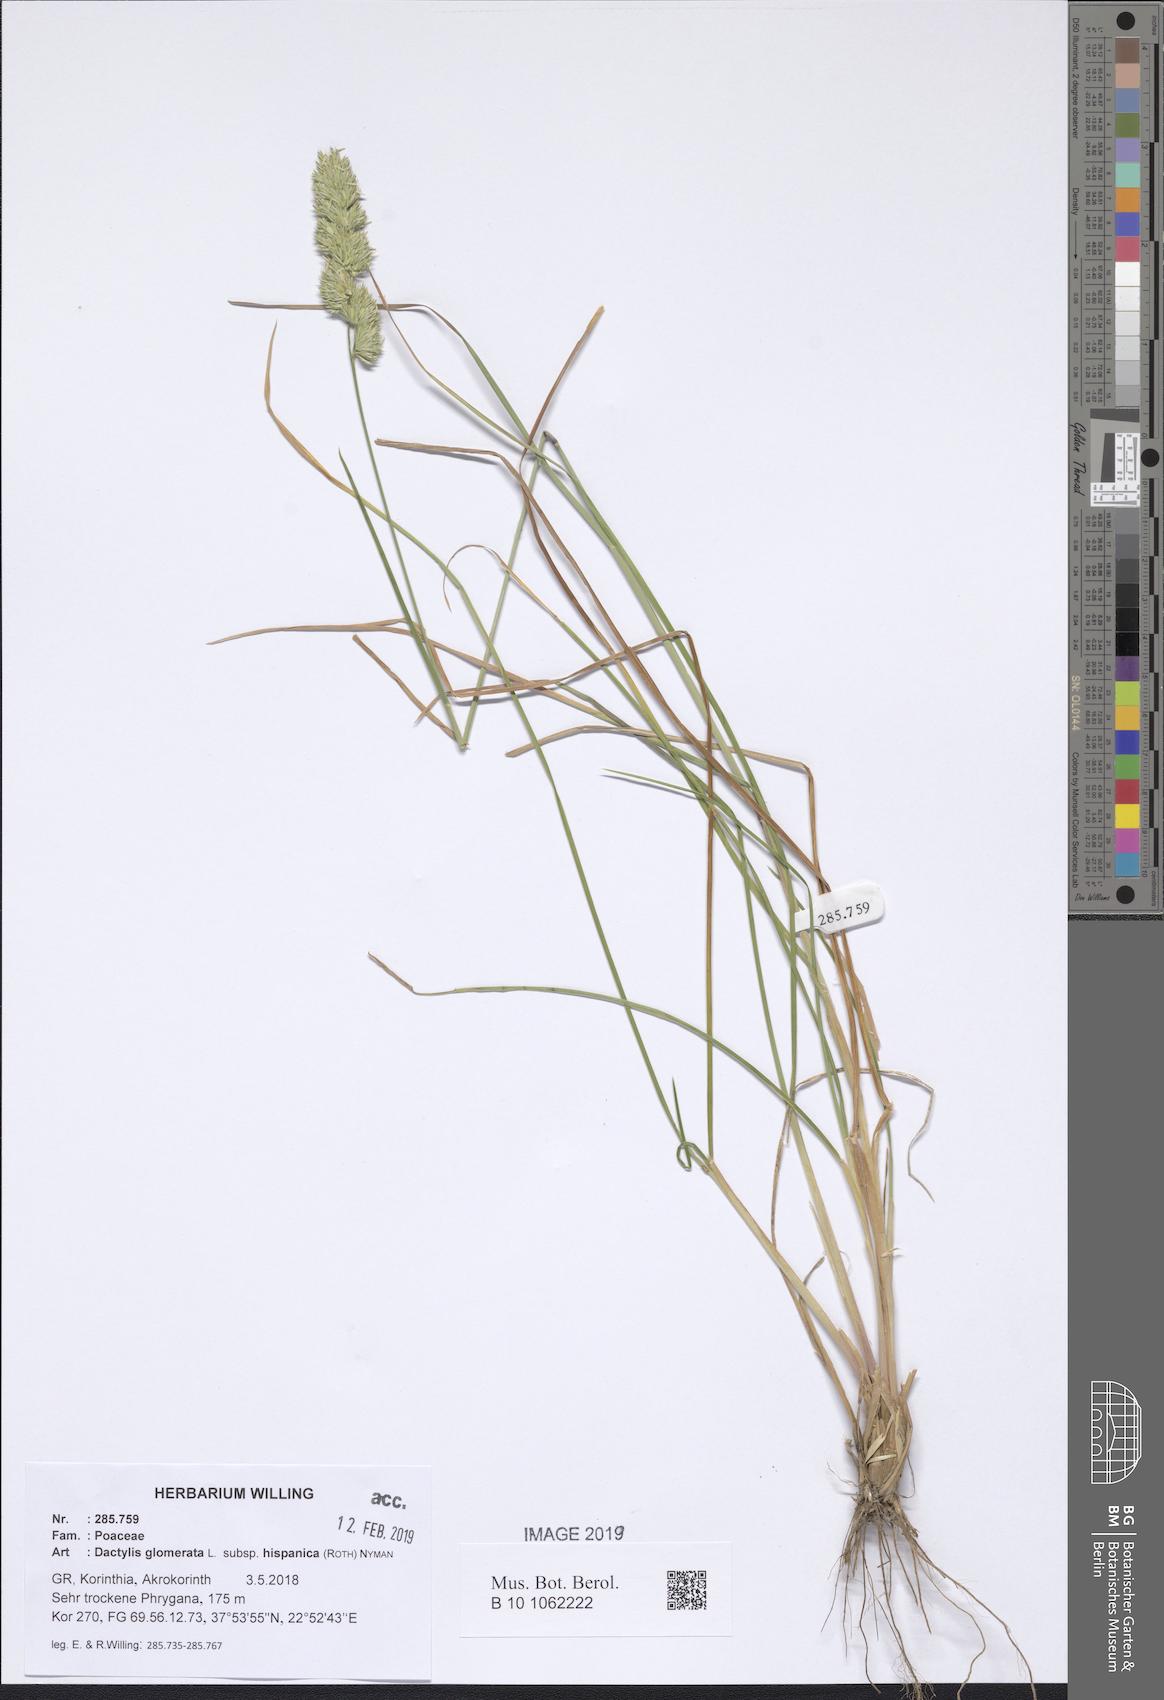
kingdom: Plantae
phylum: Tracheophyta
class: Liliopsida
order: Poales
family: Poaceae
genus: Dactylis
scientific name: Dactylis glomerata
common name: Orchardgrass
